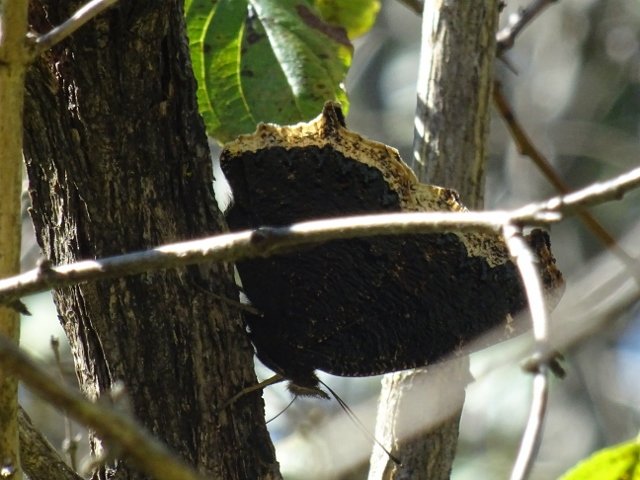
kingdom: Animalia
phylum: Arthropoda
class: Insecta
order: Lepidoptera
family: Nymphalidae
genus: Nymphalis
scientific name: Nymphalis antiopa
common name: Mourning Cloak
